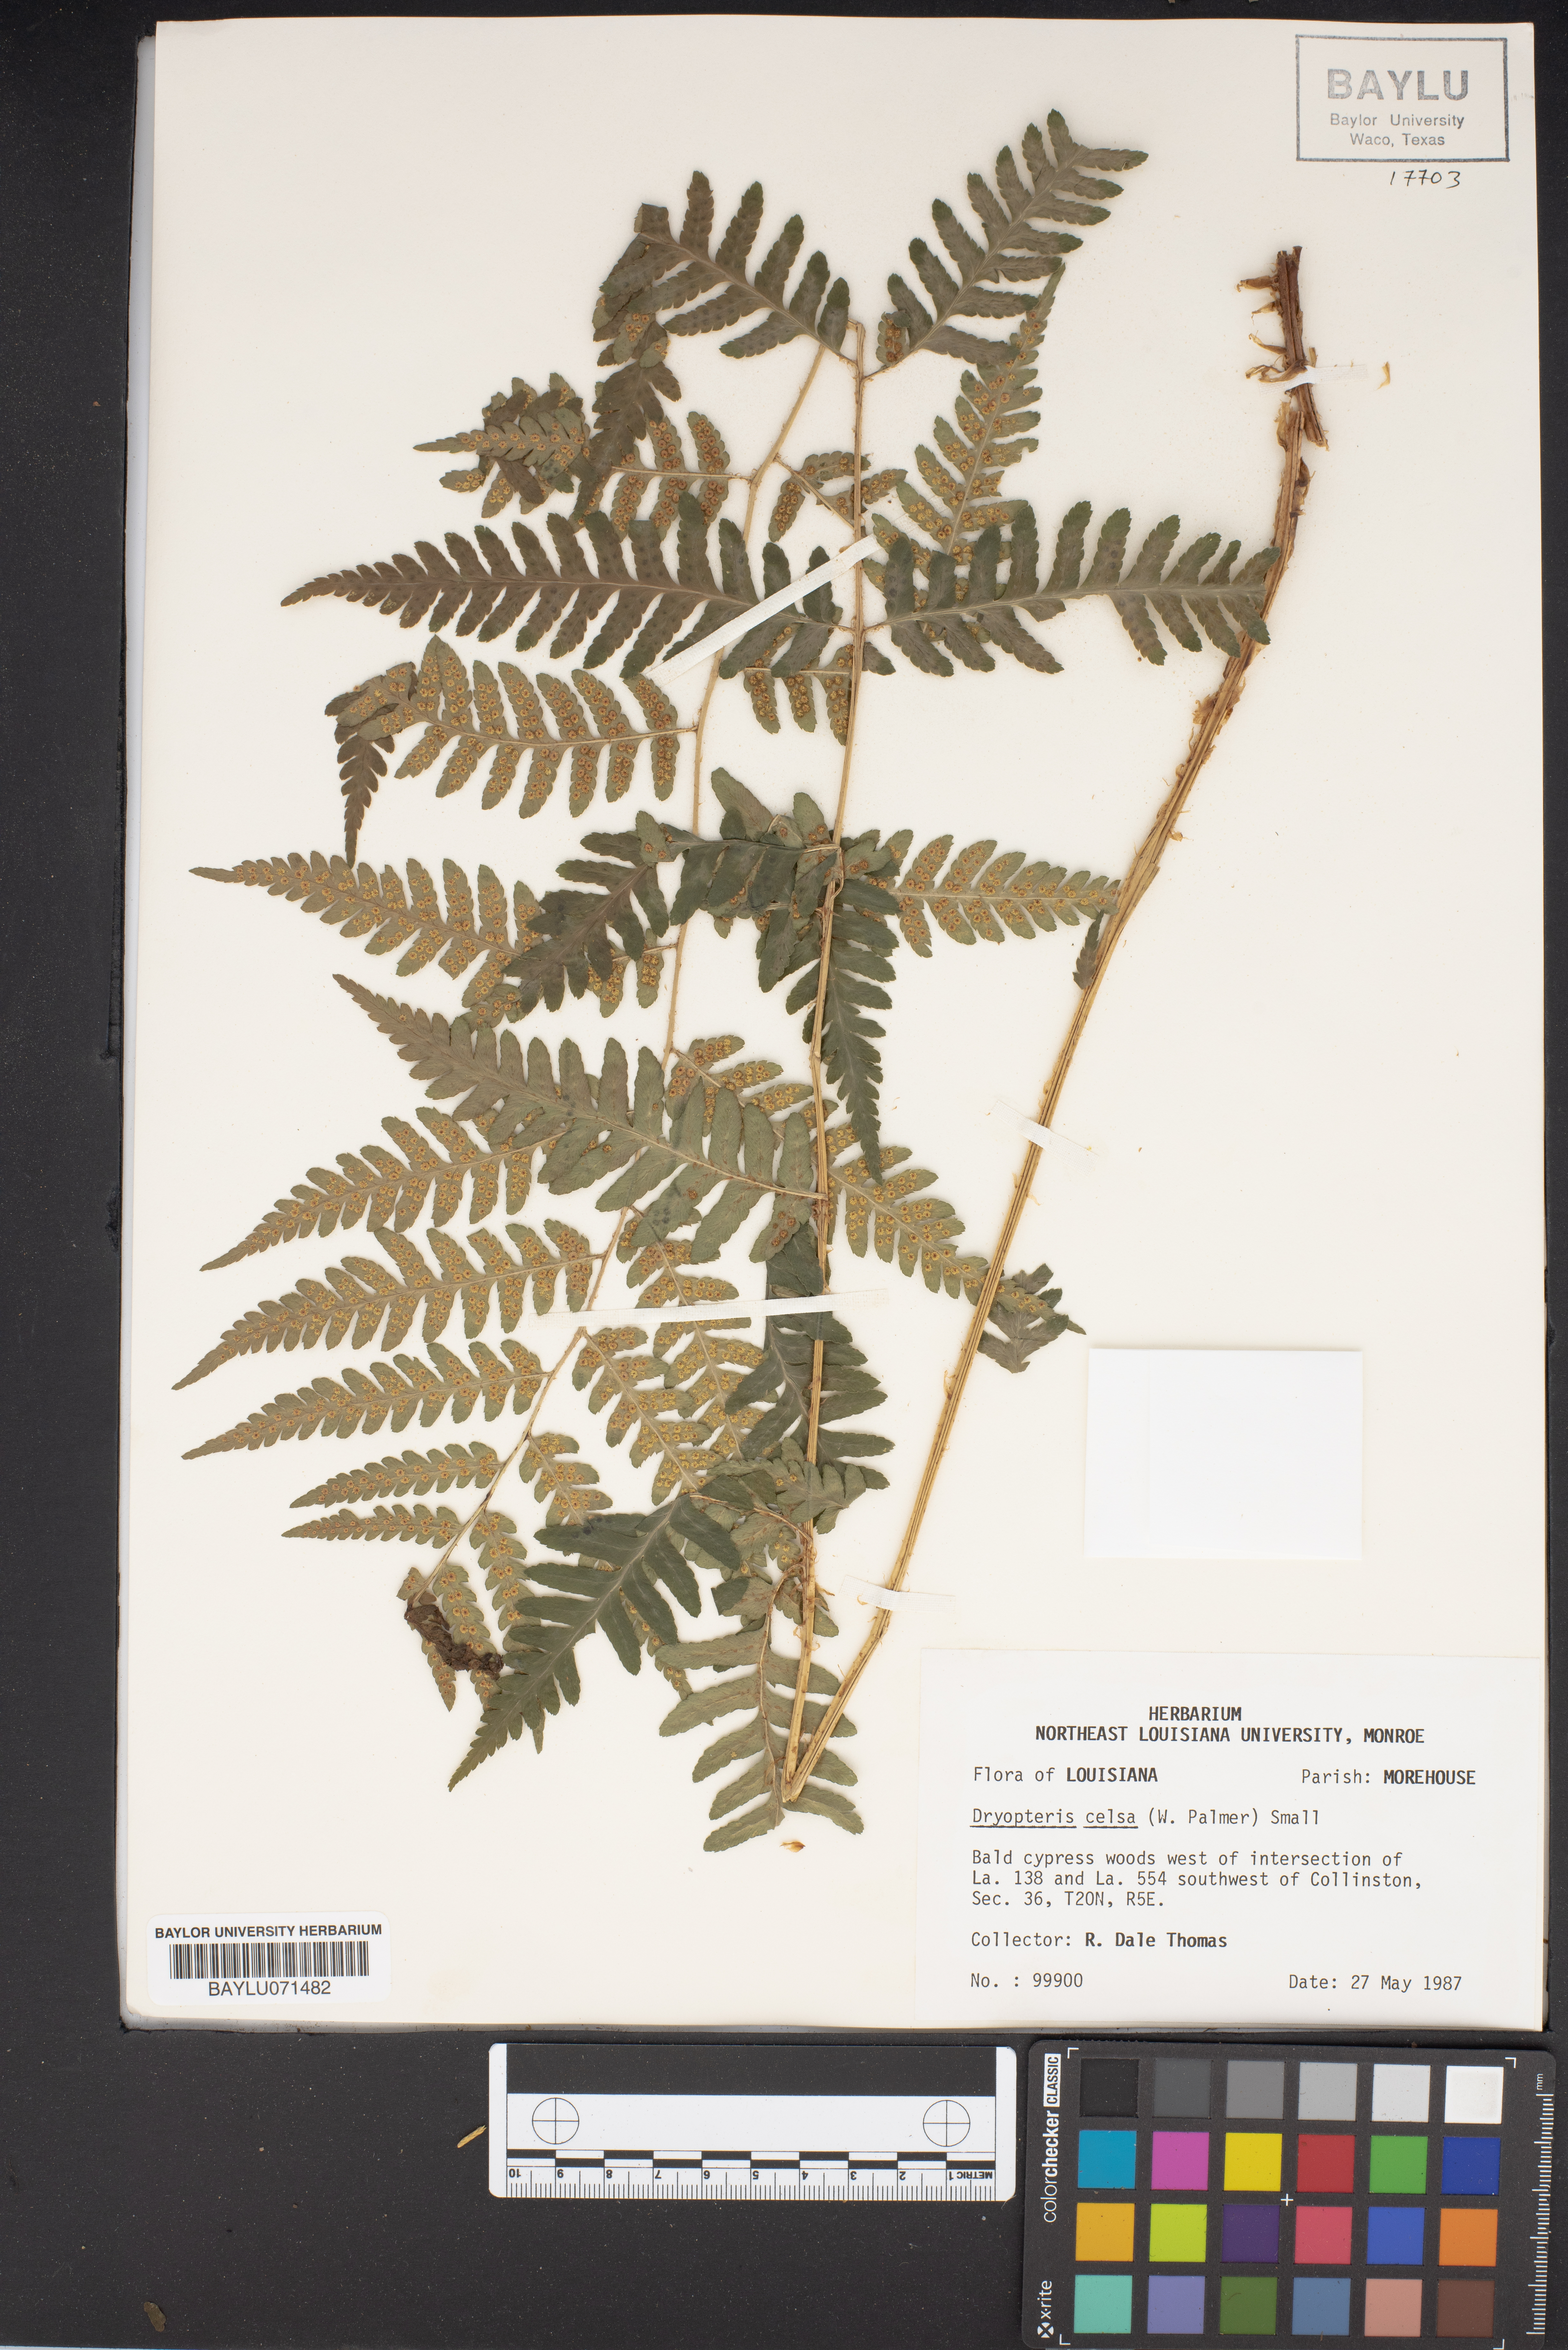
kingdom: Plantae
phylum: Tracheophyta
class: Polypodiopsida
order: Polypodiales
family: Dryopteridaceae
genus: Dryopteris
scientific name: Dryopteris celsa
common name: Log fern
